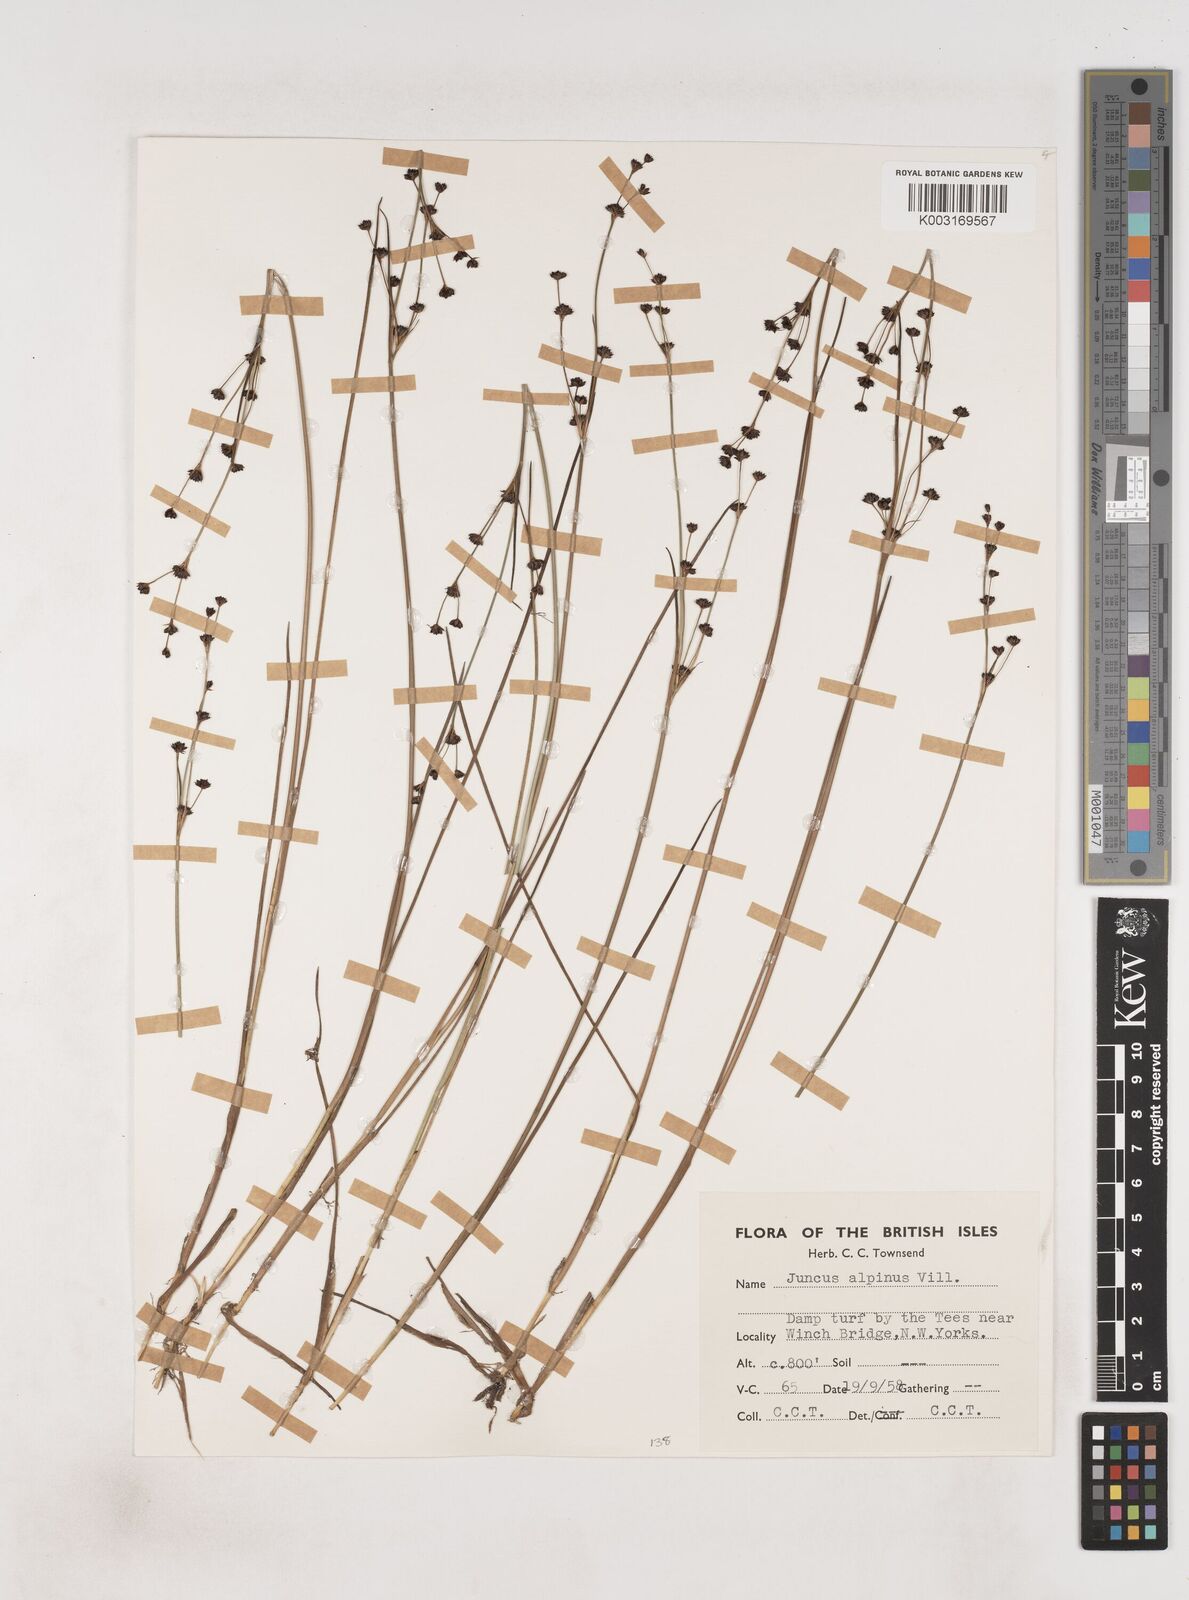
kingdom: Plantae
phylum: Tracheophyta
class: Liliopsida
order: Poales
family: Juncaceae
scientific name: Juncaceae
